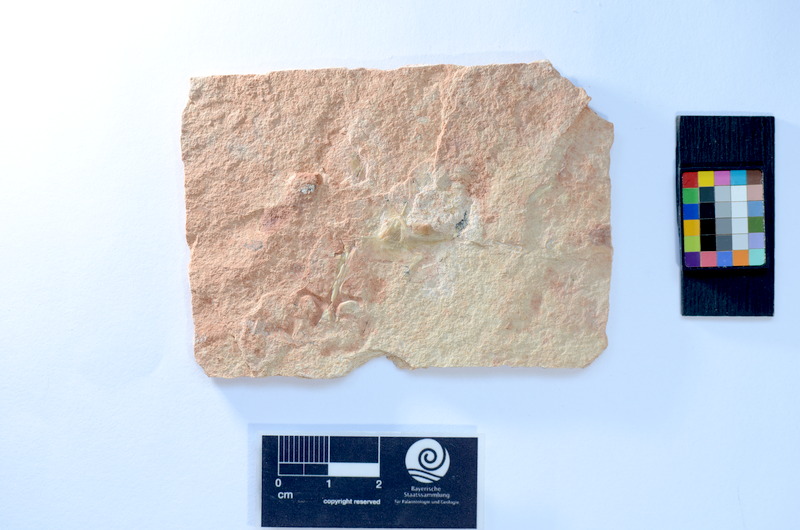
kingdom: Animalia
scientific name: Animalia
